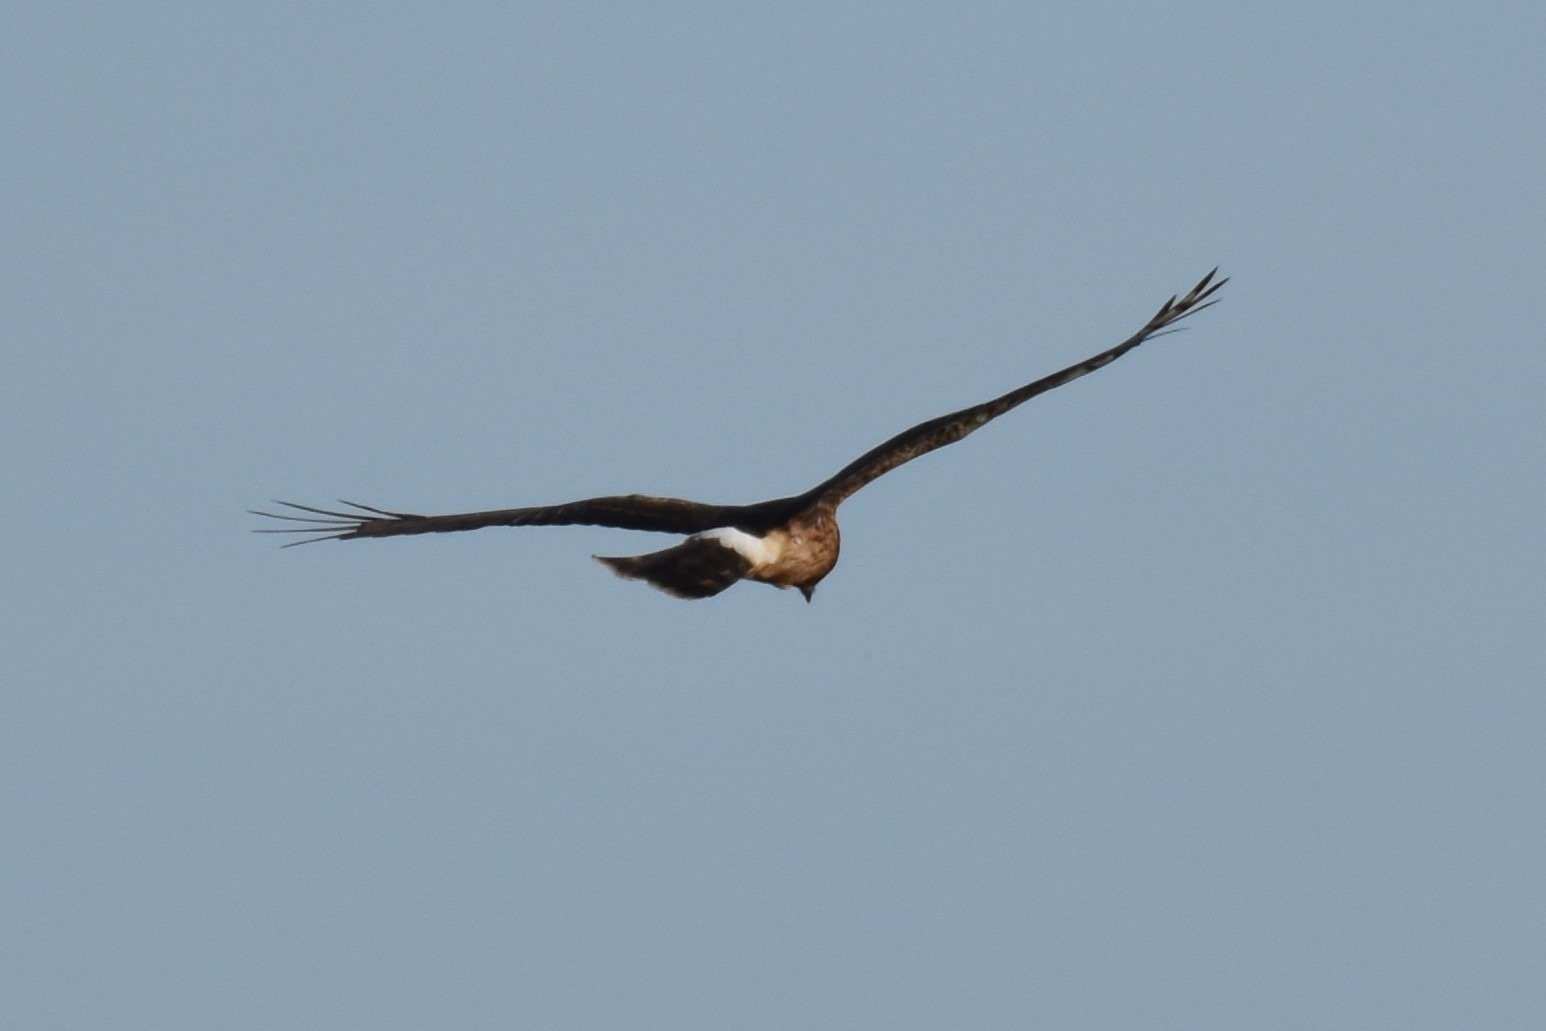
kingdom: Animalia
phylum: Chordata
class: Aves
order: Accipitriformes
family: Accipitridae
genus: Circus
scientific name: Circus cyaneus
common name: Blå kærhøg
